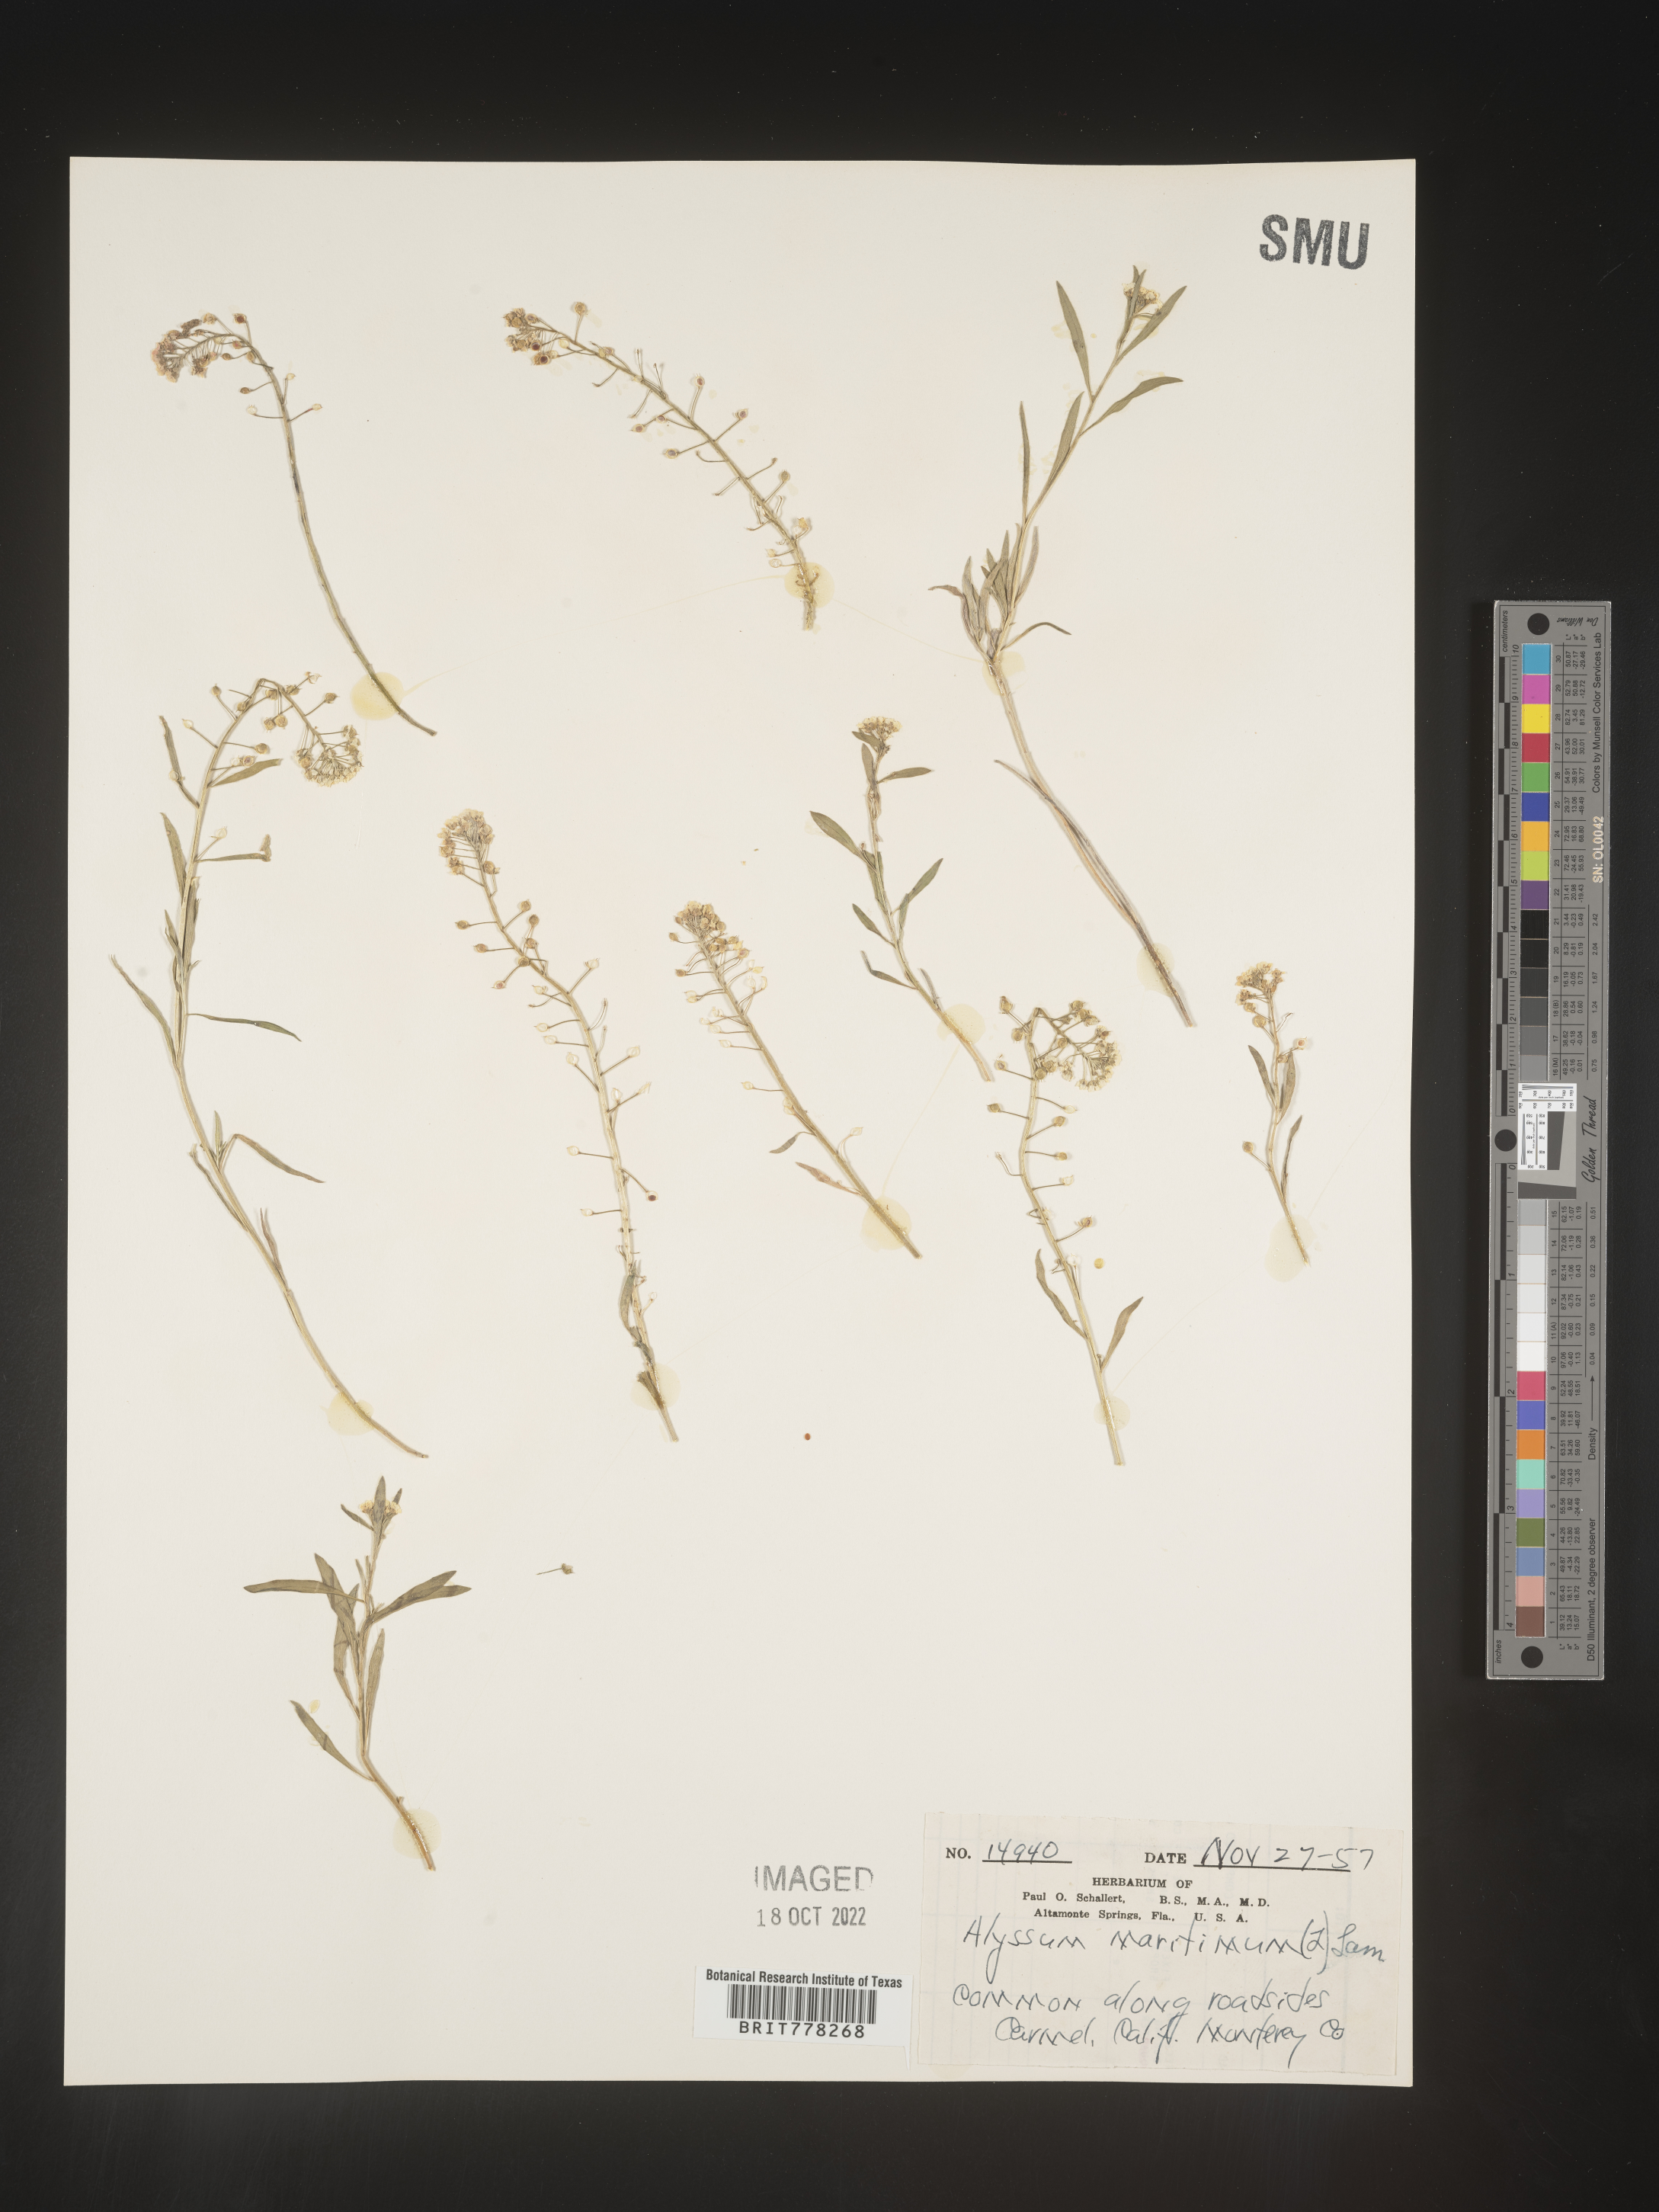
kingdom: Plantae
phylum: Tracheophyta
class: Magnoliopsida
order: Brassicales
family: Brassicaceae
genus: Lobularia
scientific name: Lobularia
